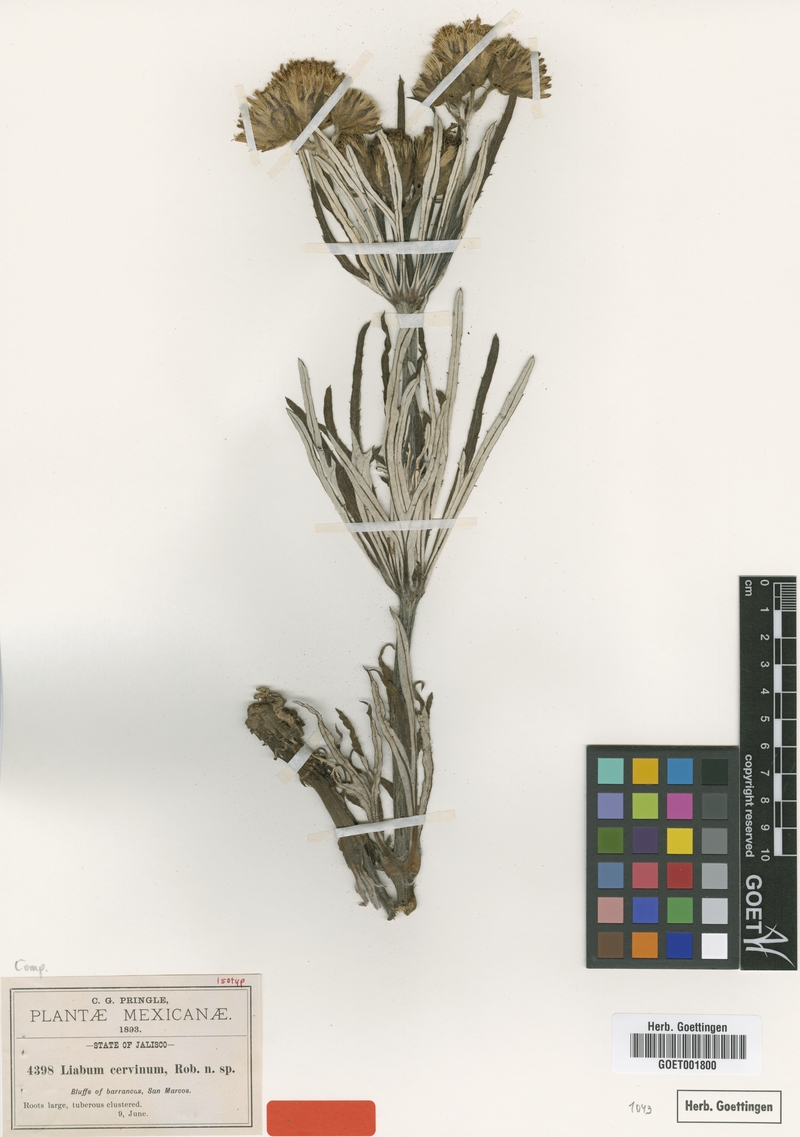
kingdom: Plantae
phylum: Tracheophyta
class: Magnoliopsida
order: Asterales
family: Asteraceae
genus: Sinclairia
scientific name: Sinclairia cervina
